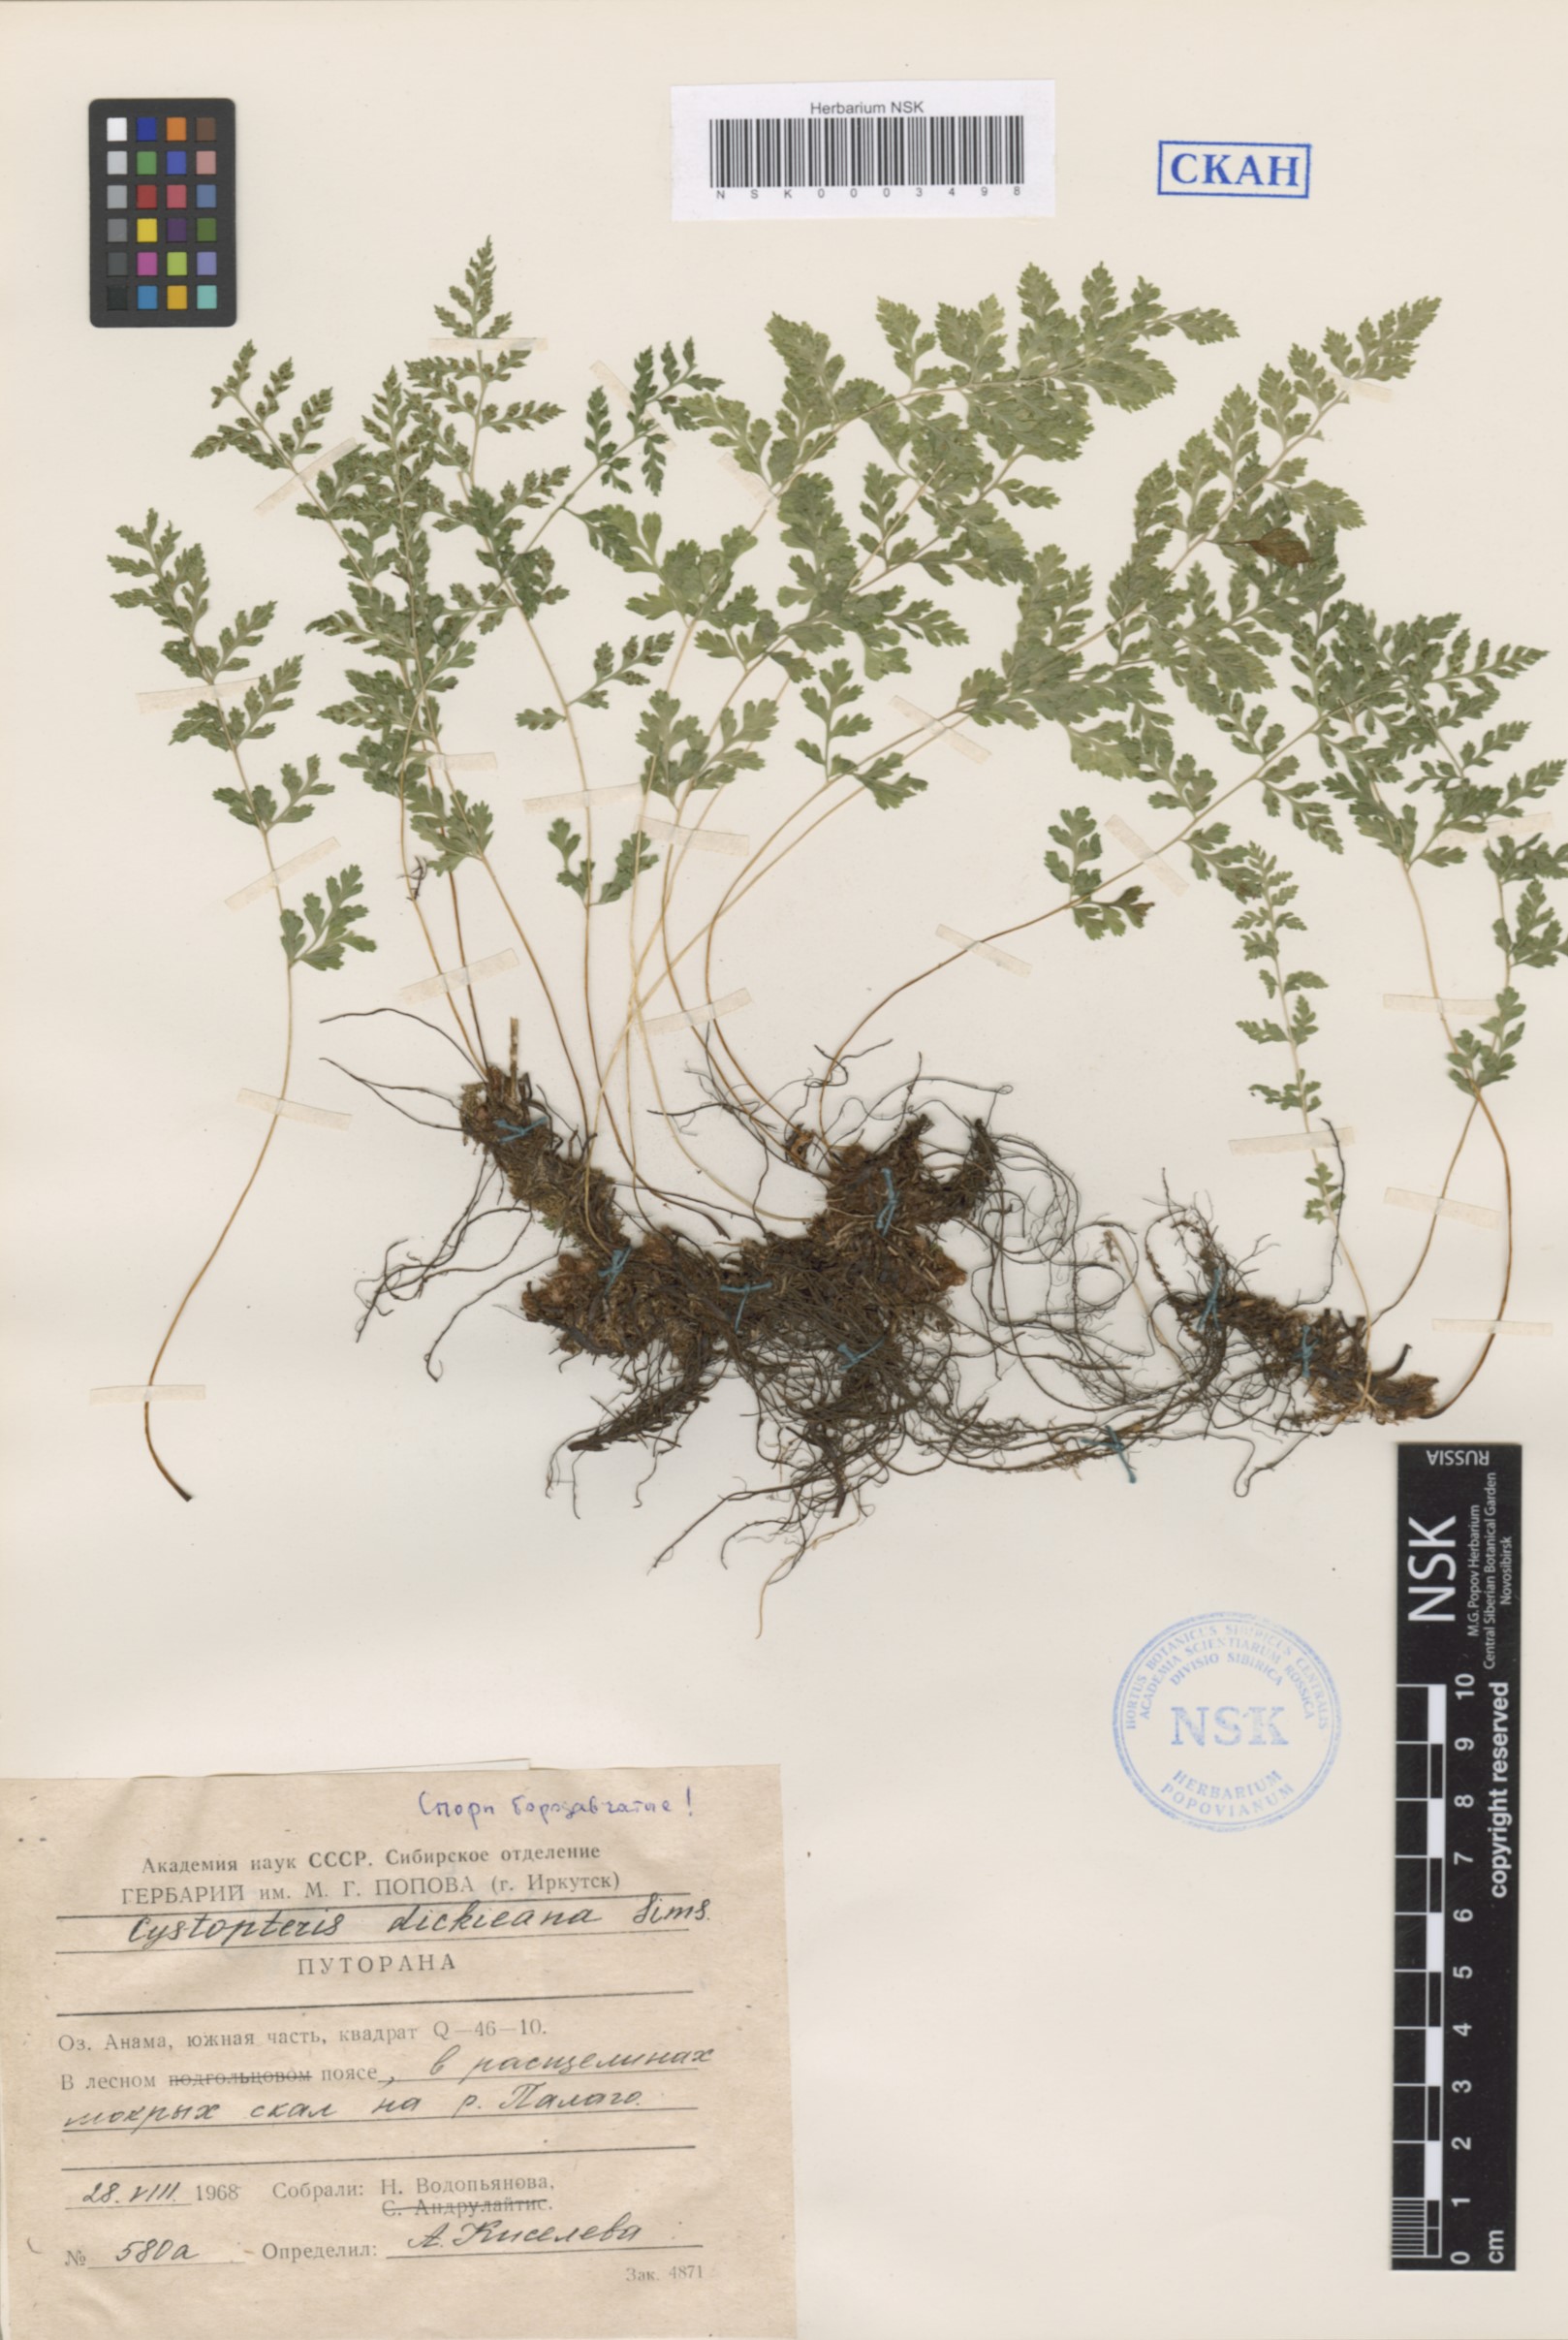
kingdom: Plantae
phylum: Tracheophyta
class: Polypodiopsida
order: Polypodiales
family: Cystopteridaceae
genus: Cystopteris
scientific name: Cystopteris dickieana
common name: Dickie's bladder-fern
